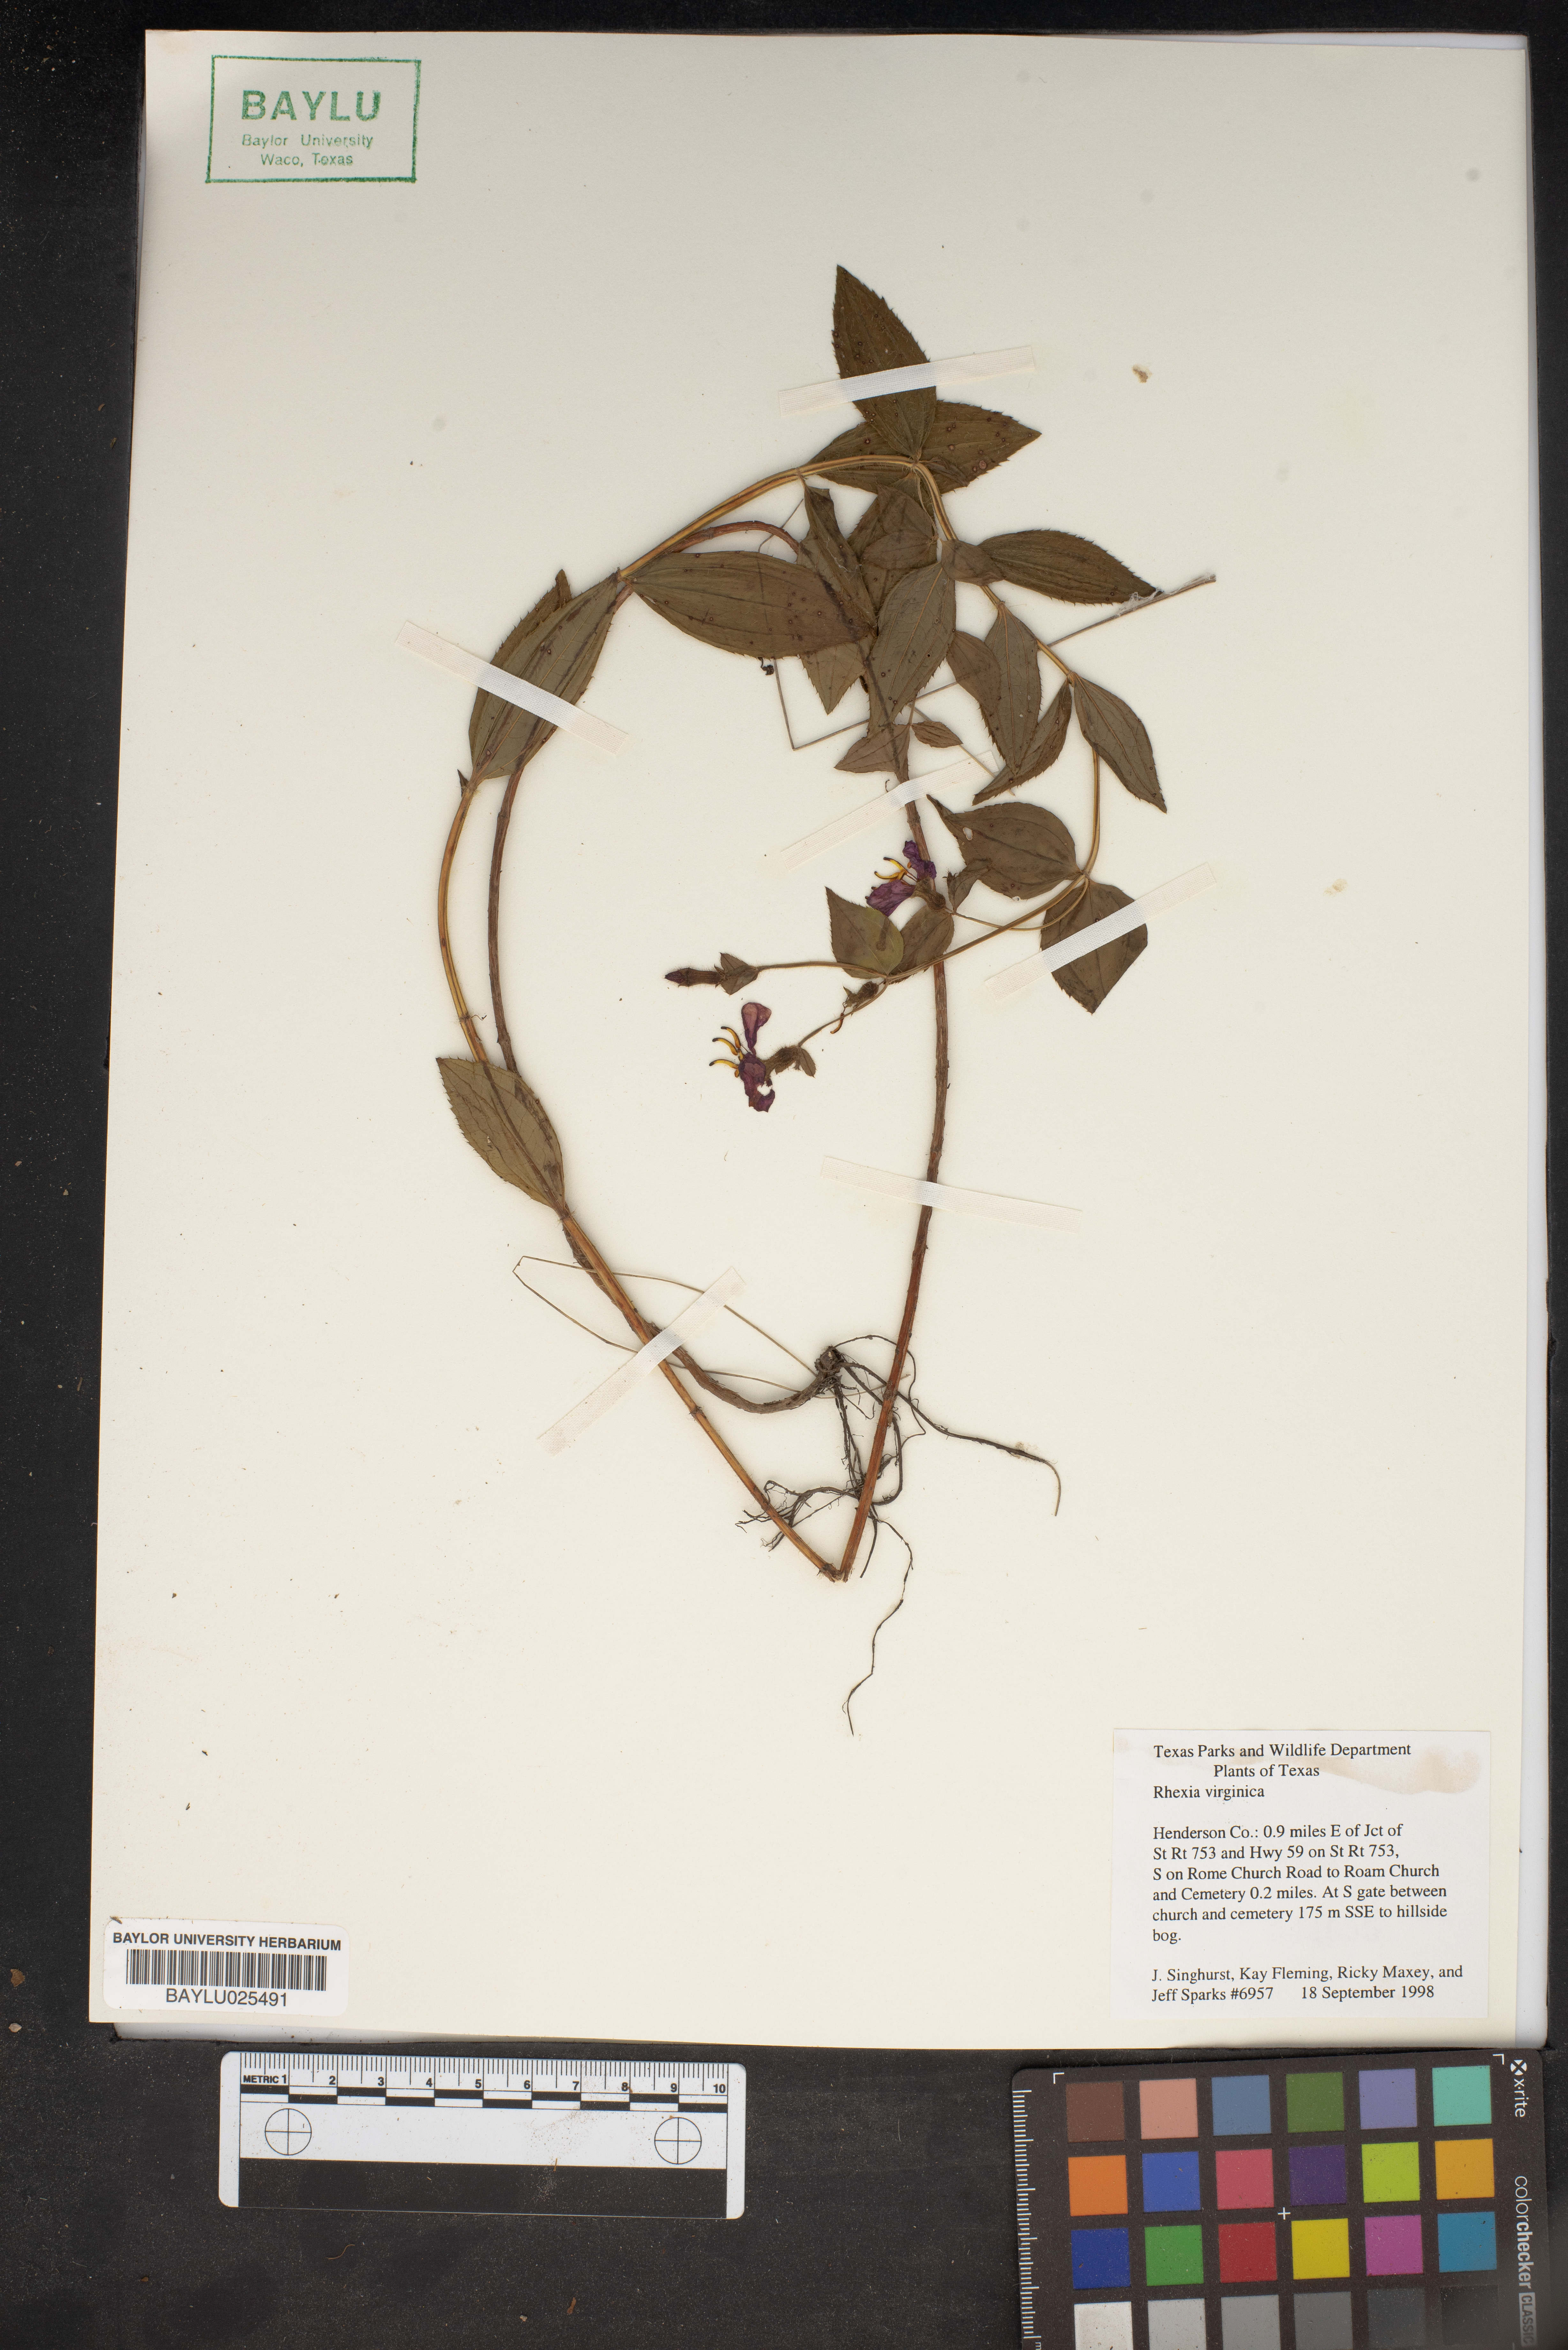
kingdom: Plantae
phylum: Tracheophyta
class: Magnoliopsida
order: Myrtales
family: Melastomataceae
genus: Rhexia
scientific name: Rhexia virginica
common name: Common meadow beauty
